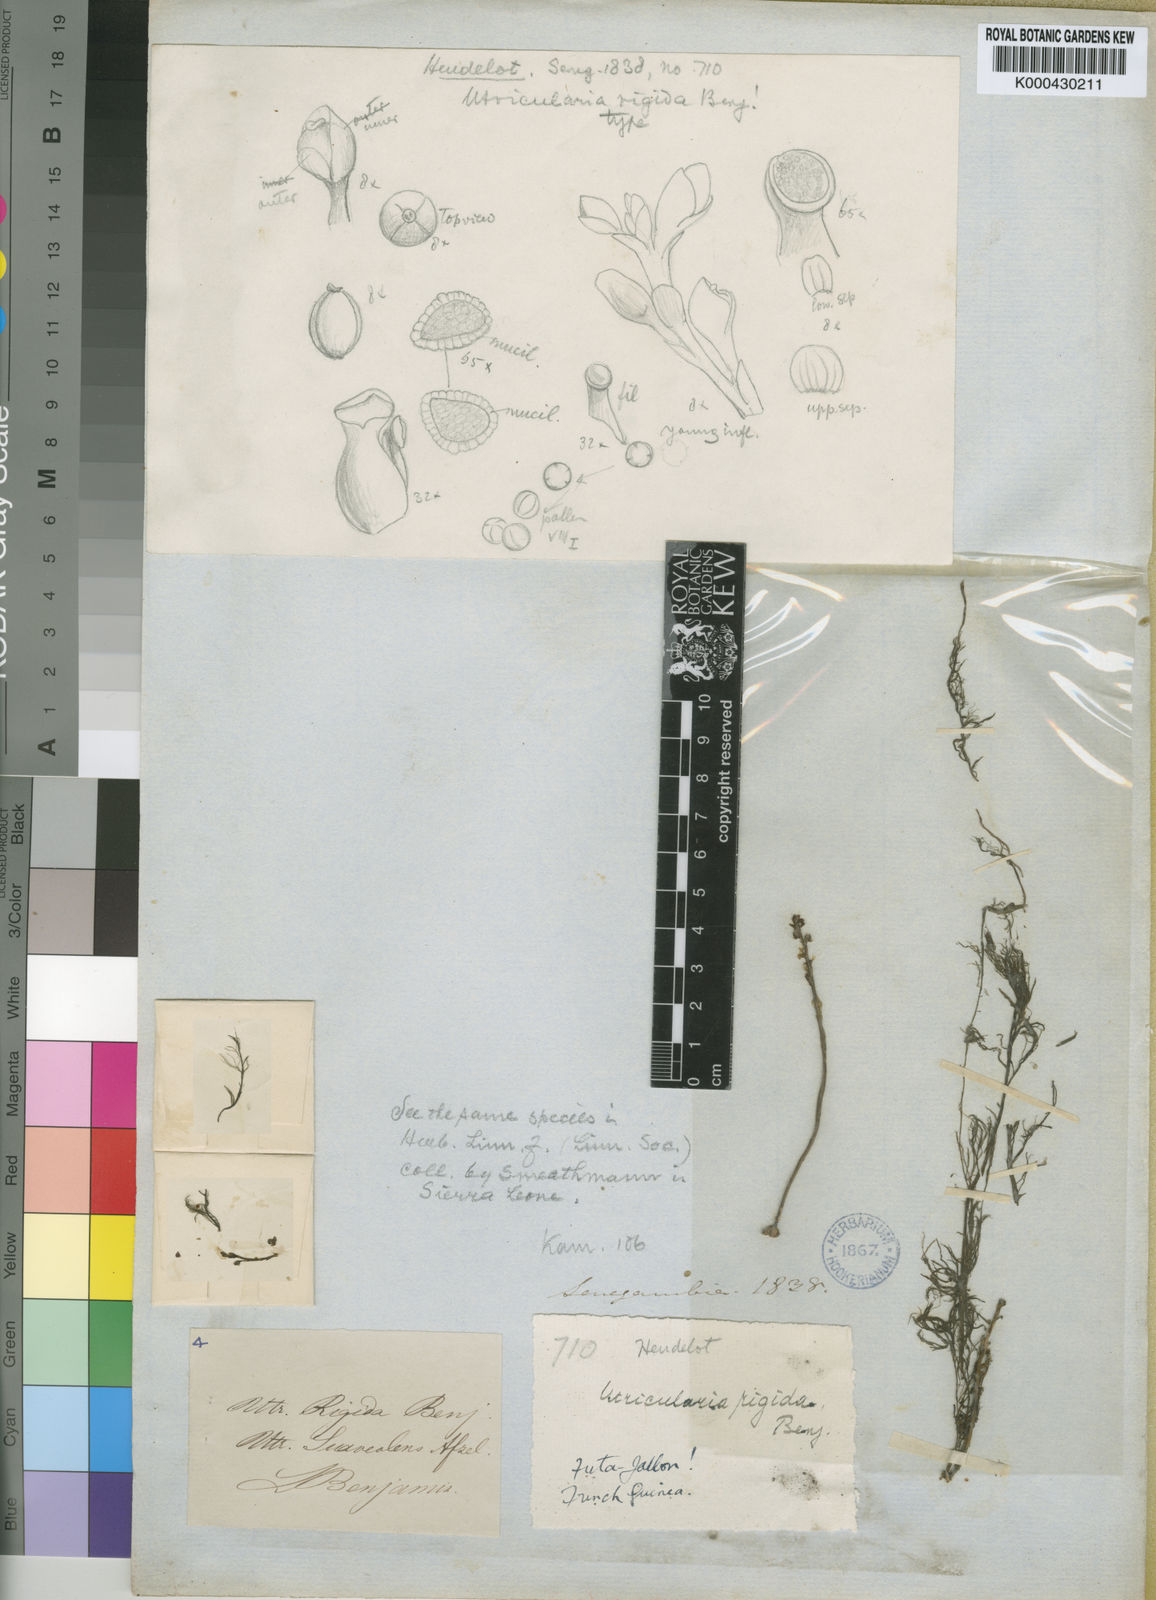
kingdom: Plantae
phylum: Tracheophyta
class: Magnoliopsida
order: Lamiales
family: Lentibulariaceae
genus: Utricularia
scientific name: Utricularia rigida
